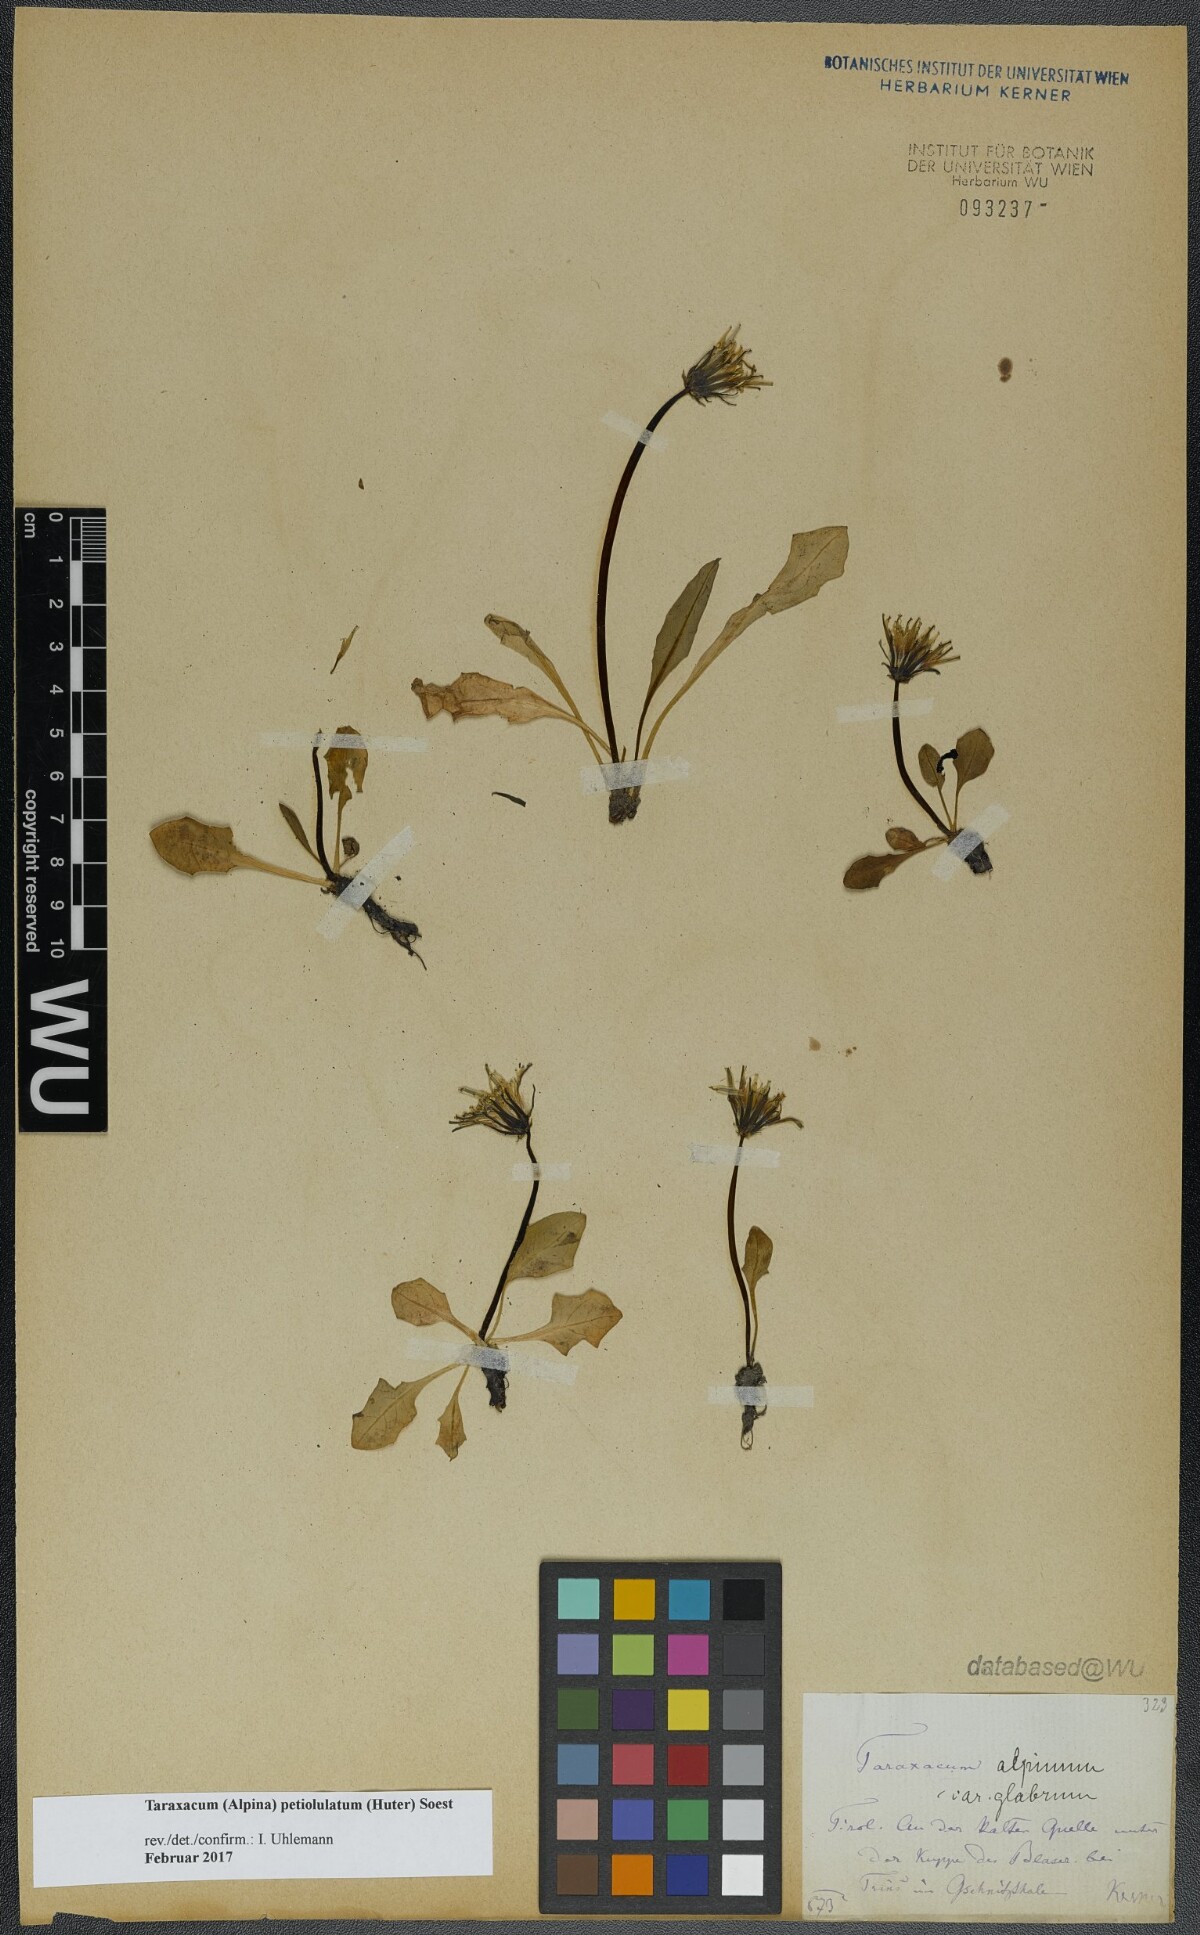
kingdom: Plantae
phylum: Tracheophyta
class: Magnoliopsida
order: Asterales
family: Asteraceae
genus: Taraxacum
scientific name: Taraxacum petiolulatum
